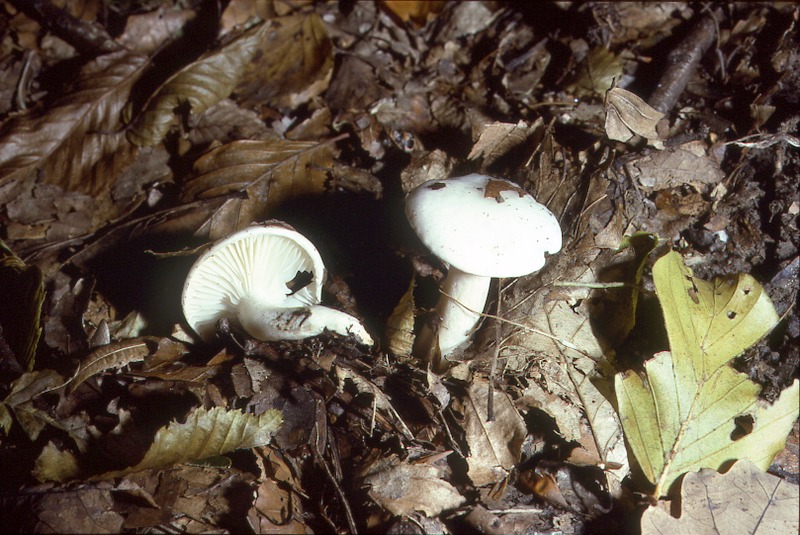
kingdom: Fungi
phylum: Basidiomycota
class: Agaricomycetes
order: Agaricales
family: Hygrophoraceae
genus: Hygrophorus
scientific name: Hygrophorus eburneus
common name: Ivory wax-cap
